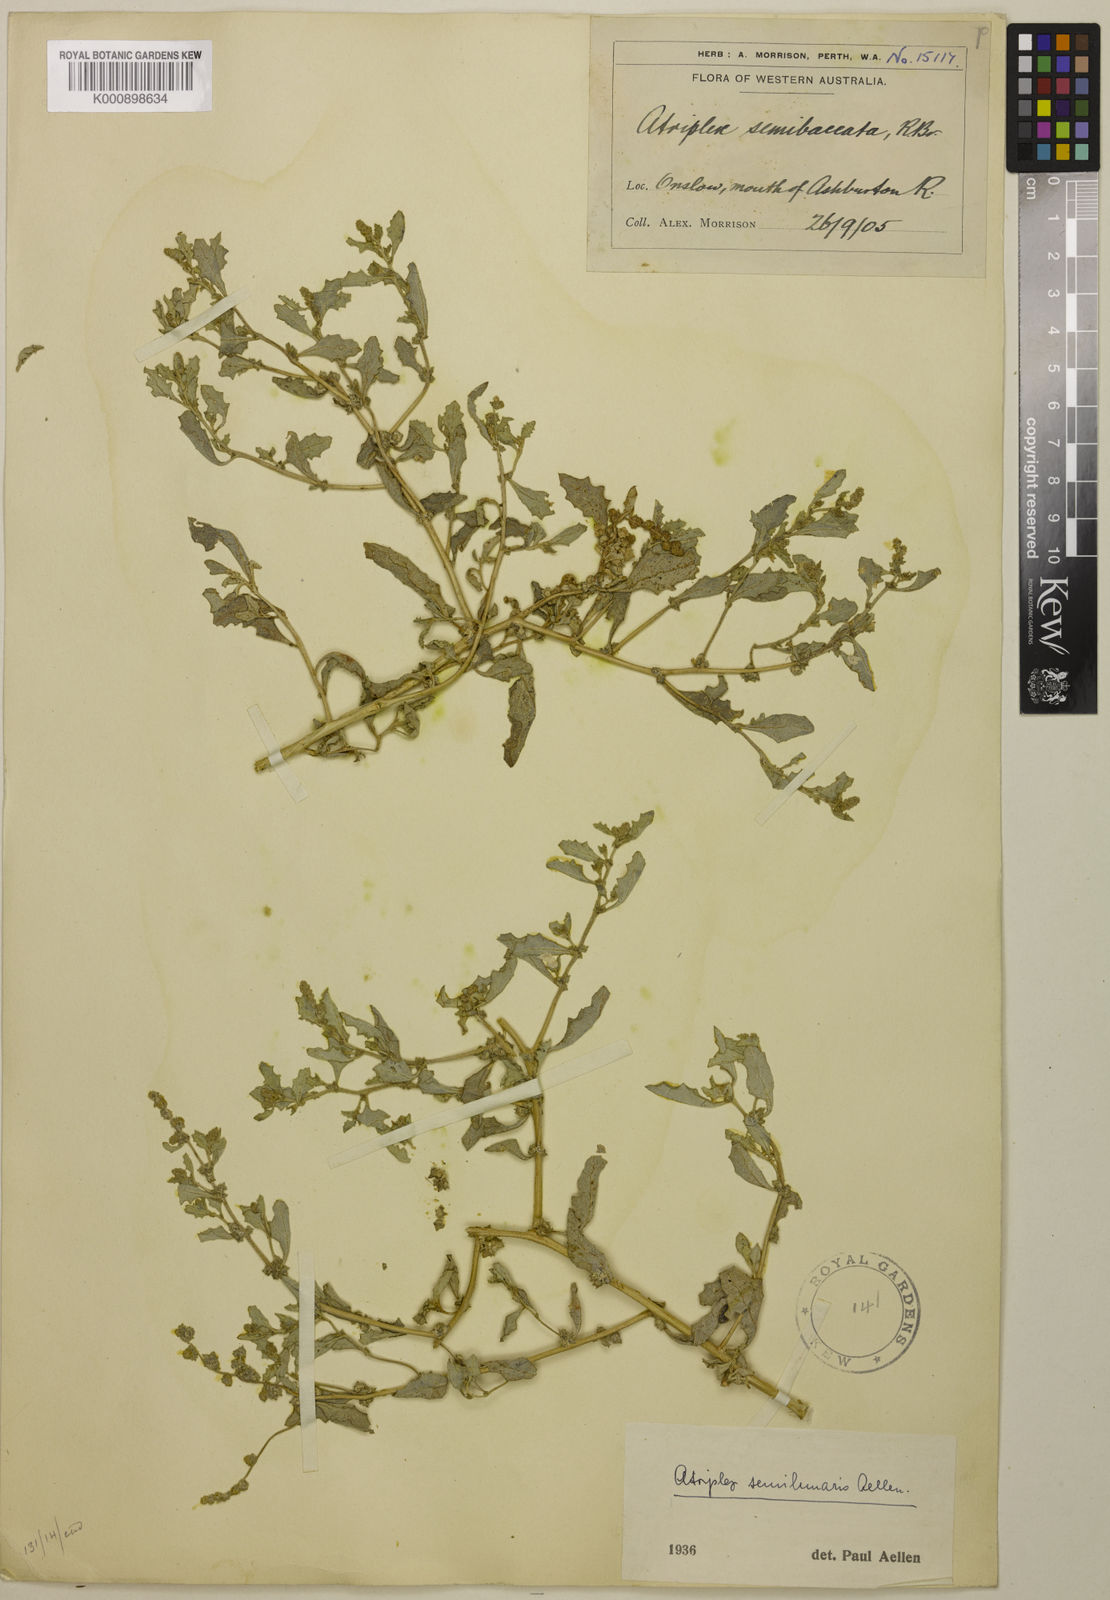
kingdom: Plantae
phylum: Tracheophyta
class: Magnoliopsida
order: Caryophyllales
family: Amaranthaceae
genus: Atriplex
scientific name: Atriplex semilunaris
